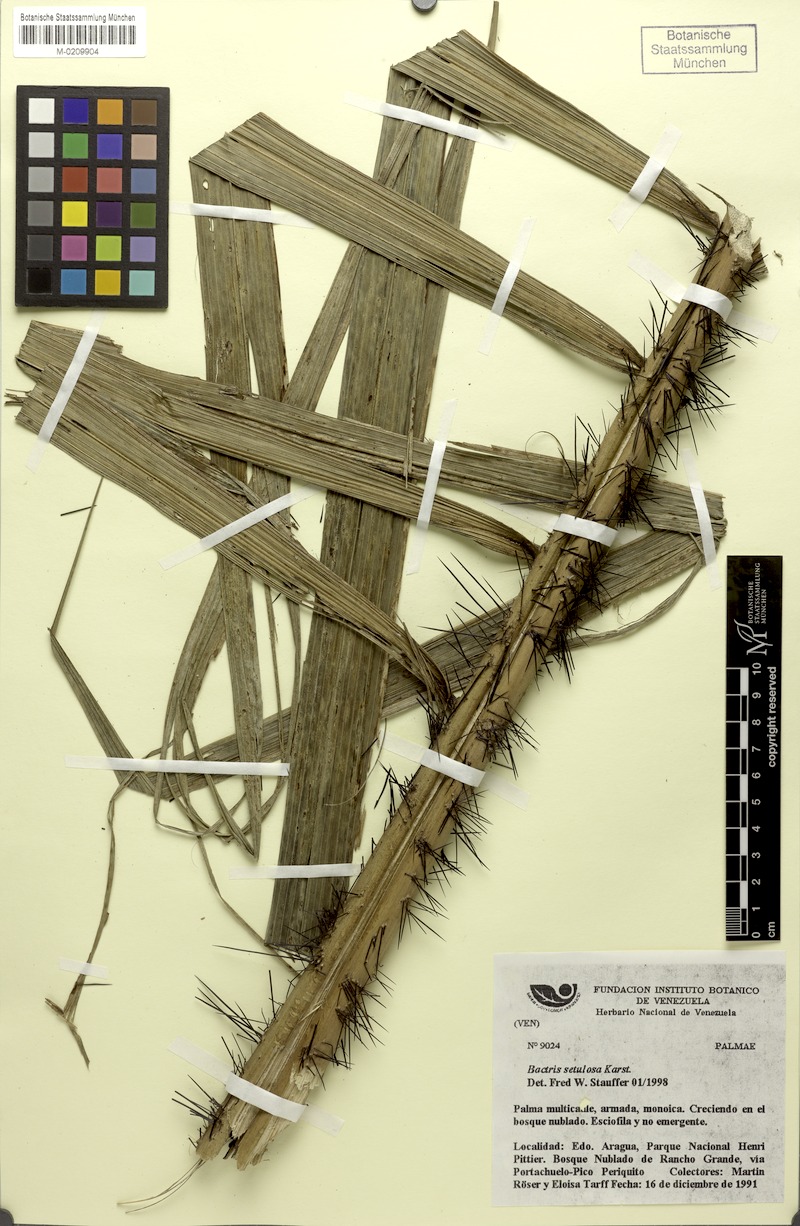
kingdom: Plantae
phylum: Tracheophyta
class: Liliopsida
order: Arecales
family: Arecaceae
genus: Bactris
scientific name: Bactris setulosa
